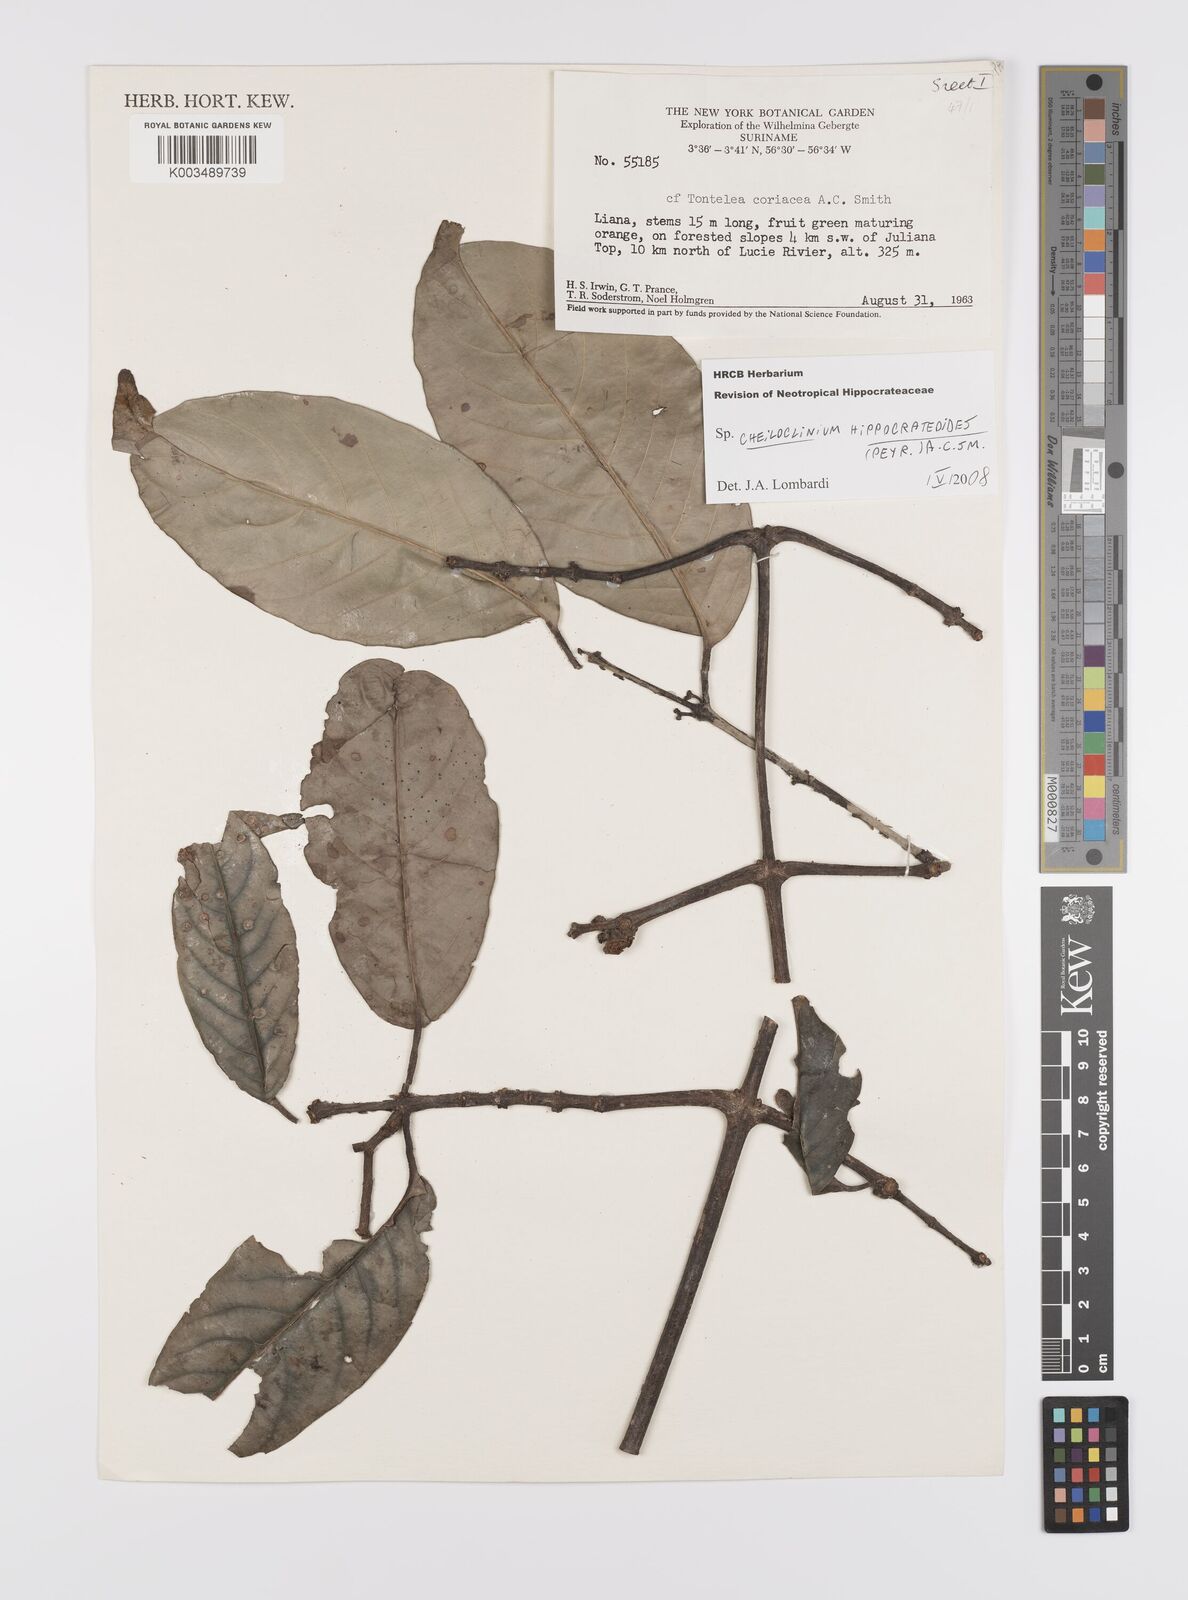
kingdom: Plantae
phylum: Tracheophyta
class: Magnoliopsida
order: Celastrales
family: Celastraceae
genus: Cheiloclinium
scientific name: Cheiloclinium hippocrateoides
